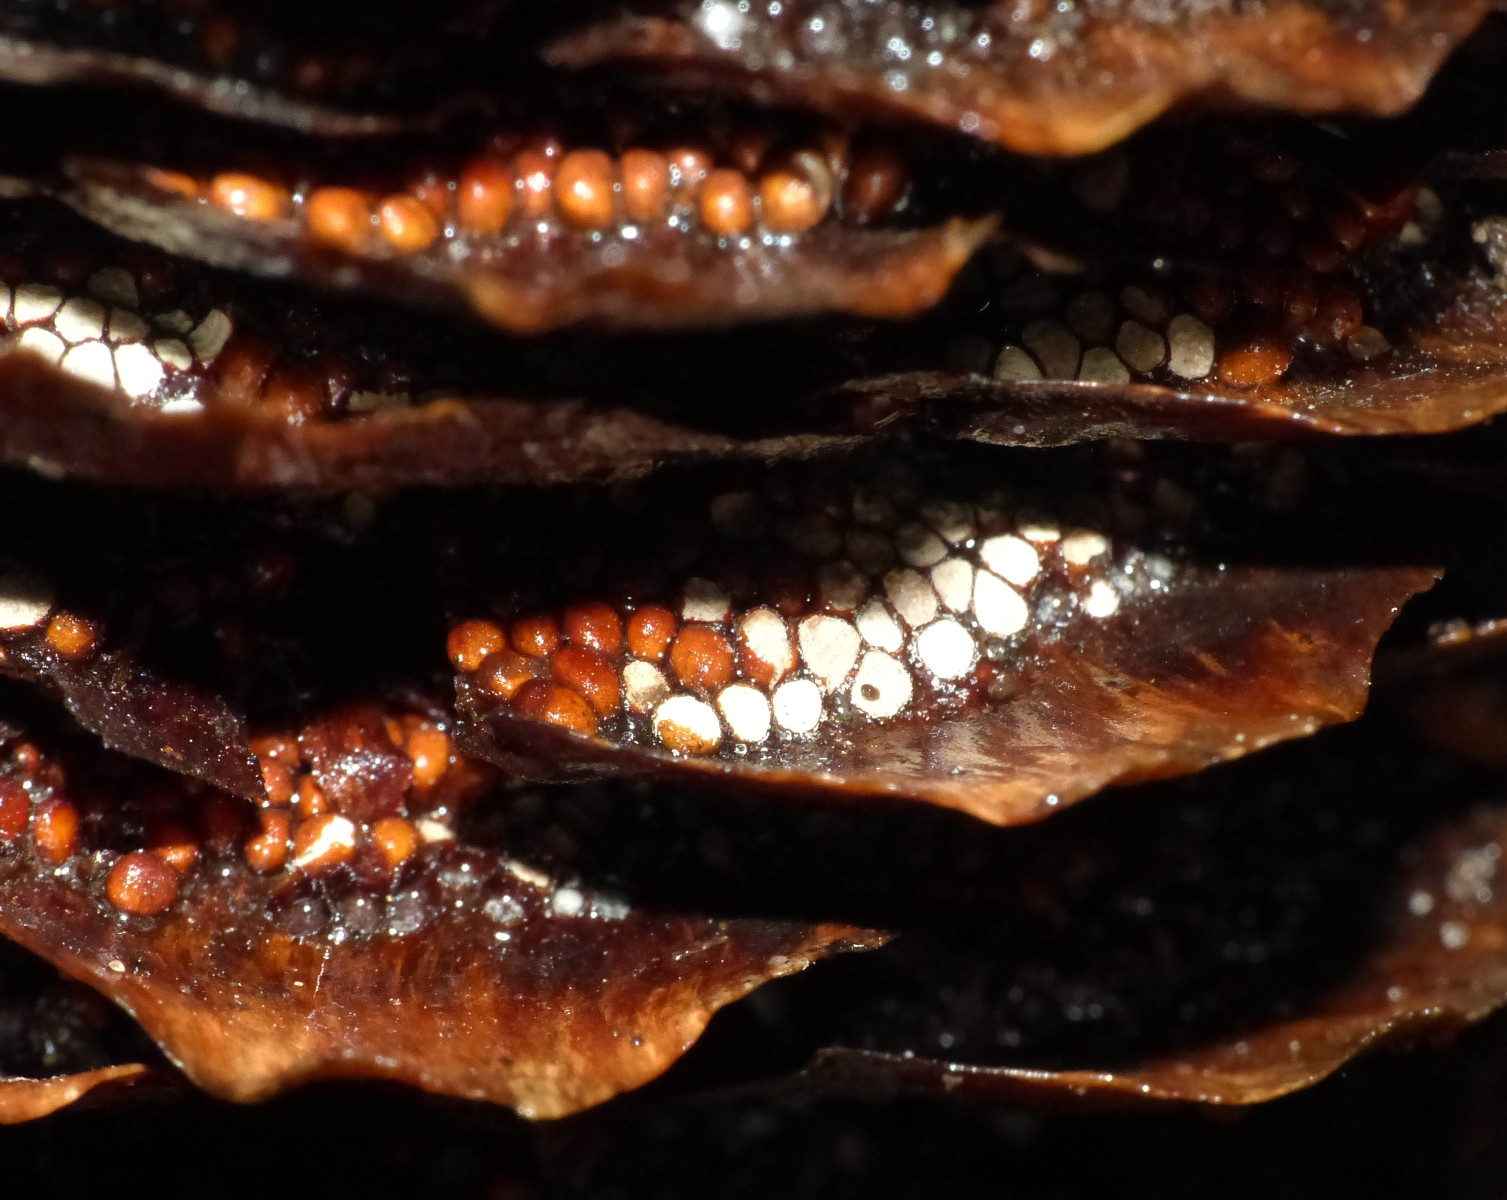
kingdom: Fungi
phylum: Basidiomycota
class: Pucciniomycetes
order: Pucciniales
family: Pucciniastraceae
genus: Thekopsora
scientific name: Thekopsora areolata
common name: grankogle-nålerust
